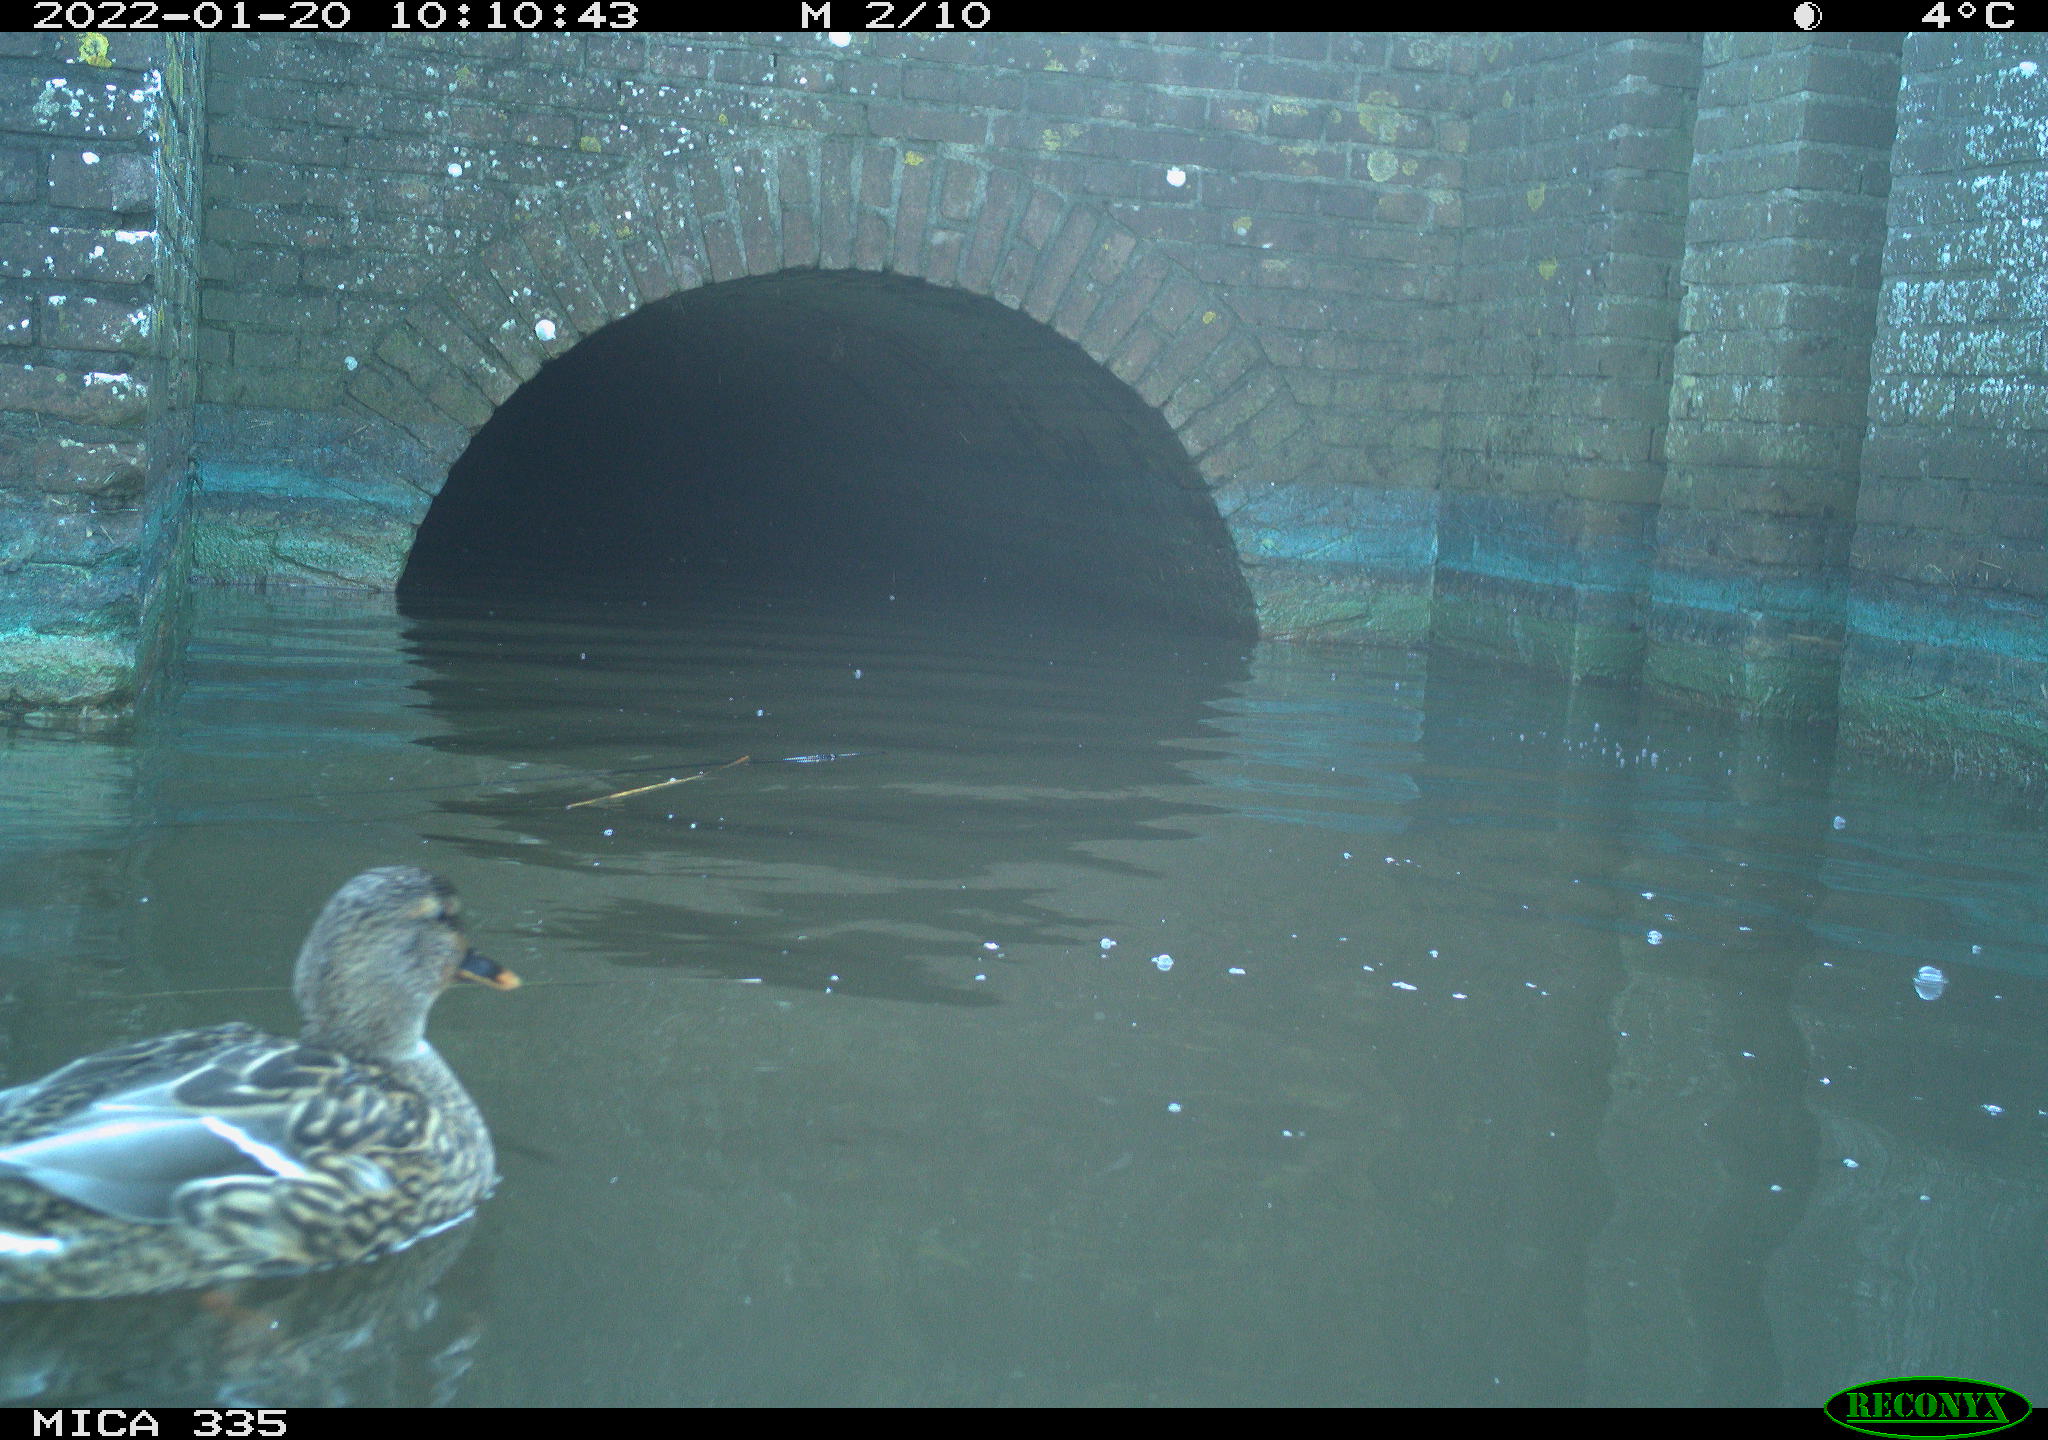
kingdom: Animalia
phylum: Chordata
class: Aves
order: Suliformes
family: Phalacrocoracidae
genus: Phalacrocorax
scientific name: Phalacrocorax carbo
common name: Great cormorant
